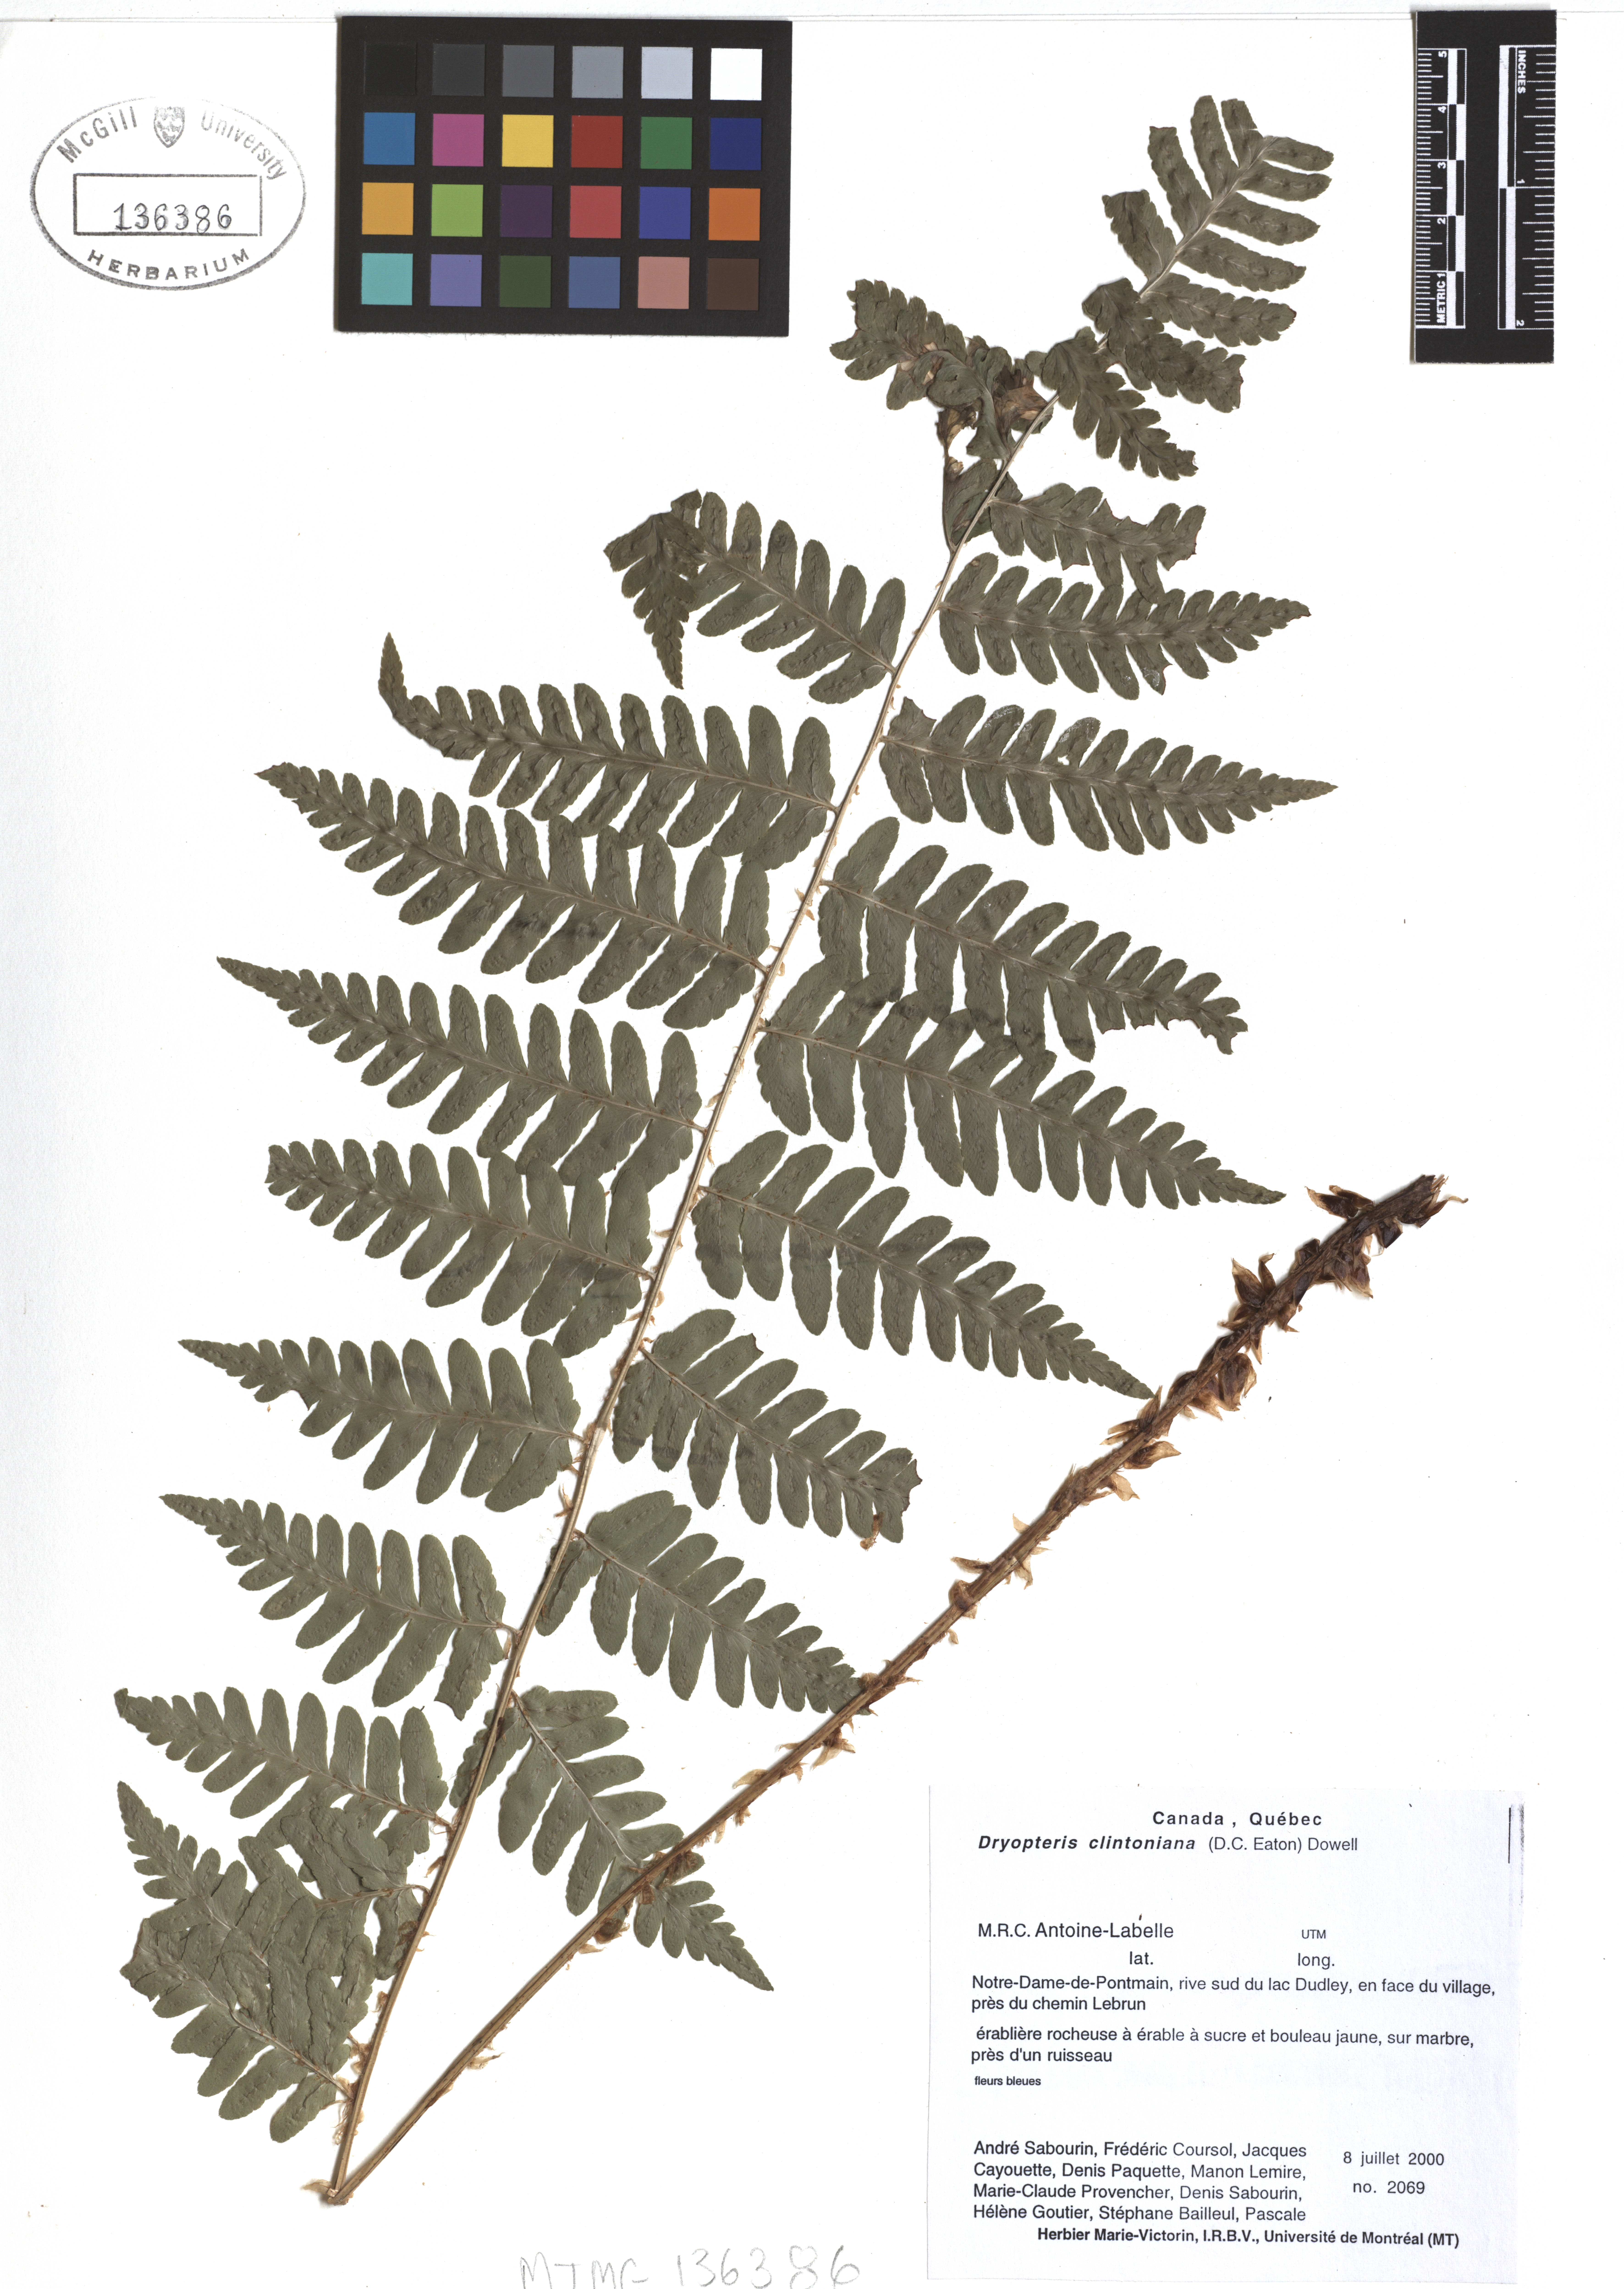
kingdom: Plantae
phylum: Tracheophyta
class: Polypodiopsida
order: Polypodiales
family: Dryopteridaceae
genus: Dryopteris
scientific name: Dryopteris clintoniana
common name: Clinton's wood fern
